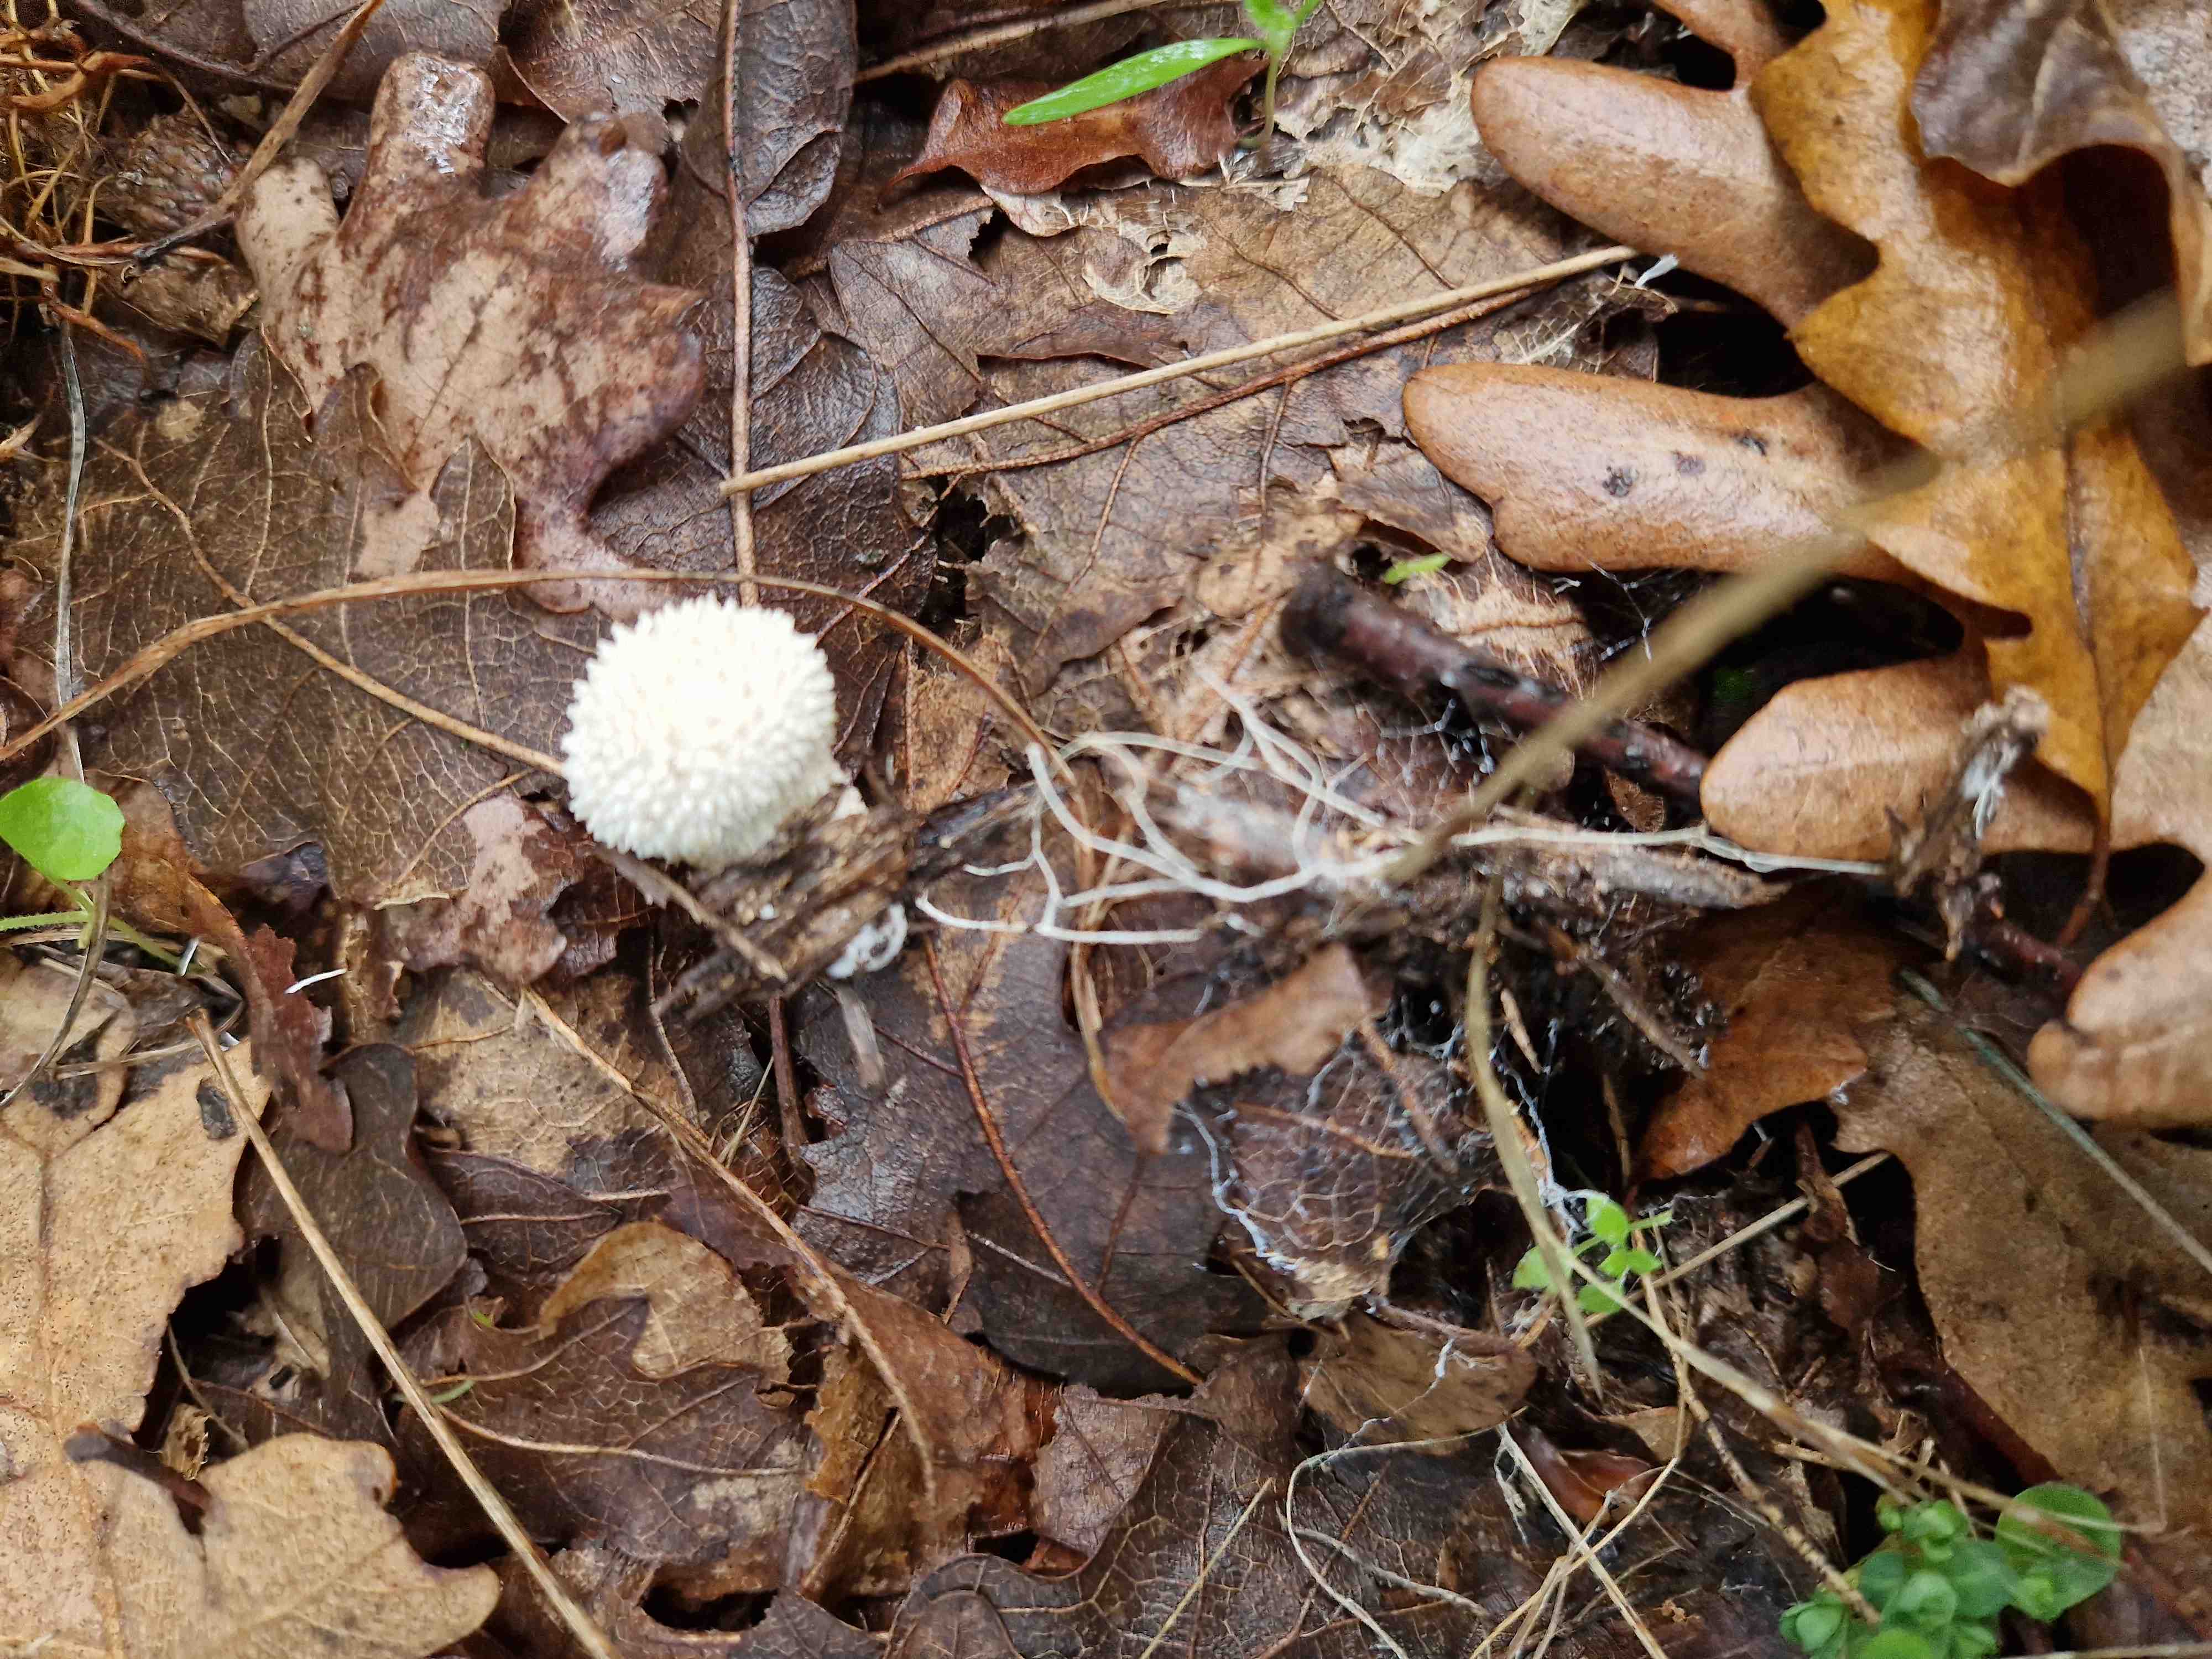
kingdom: Fungi
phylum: Basidiomycota
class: Agaricomycetes
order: Agaricales
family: Lycoperdaceae
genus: Lycoperdon
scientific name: Lycoperdon perlatum
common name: krystal-støvbold
